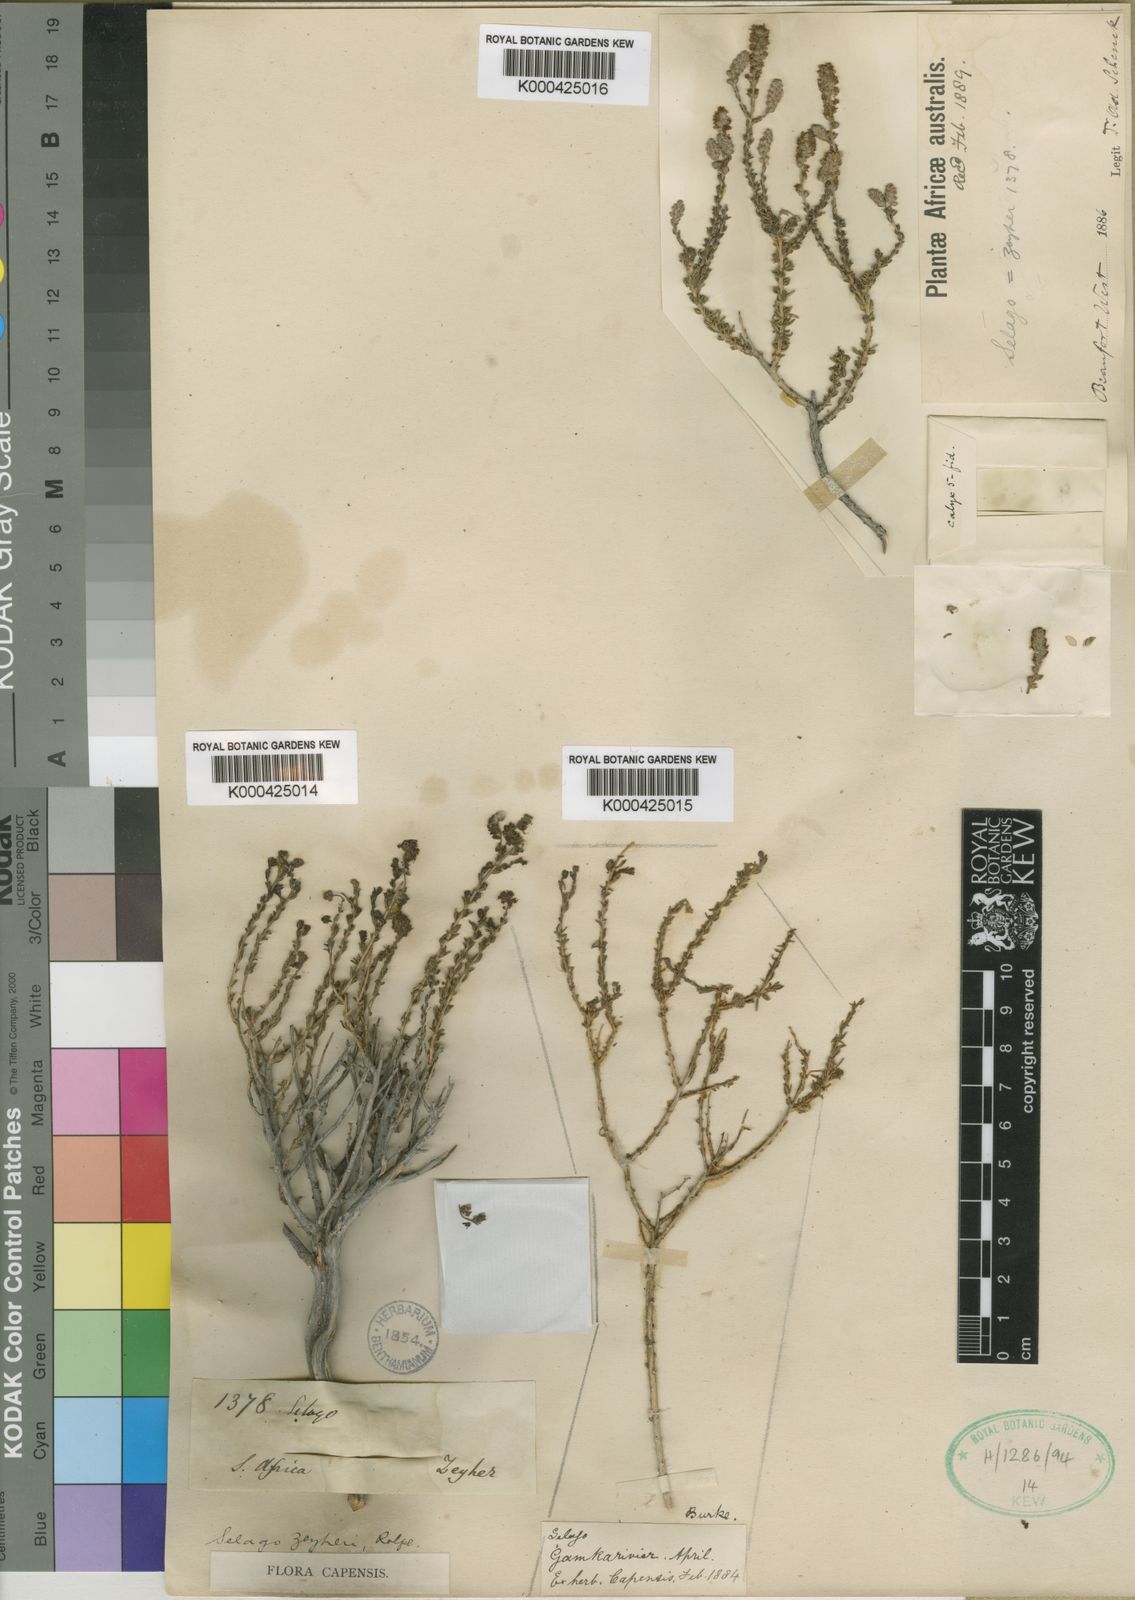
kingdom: Plantae
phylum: Tracheophyta
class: Magnoliopsida
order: Lamiales
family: Scrophulariaceae
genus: Selago
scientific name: Selago acocksii
